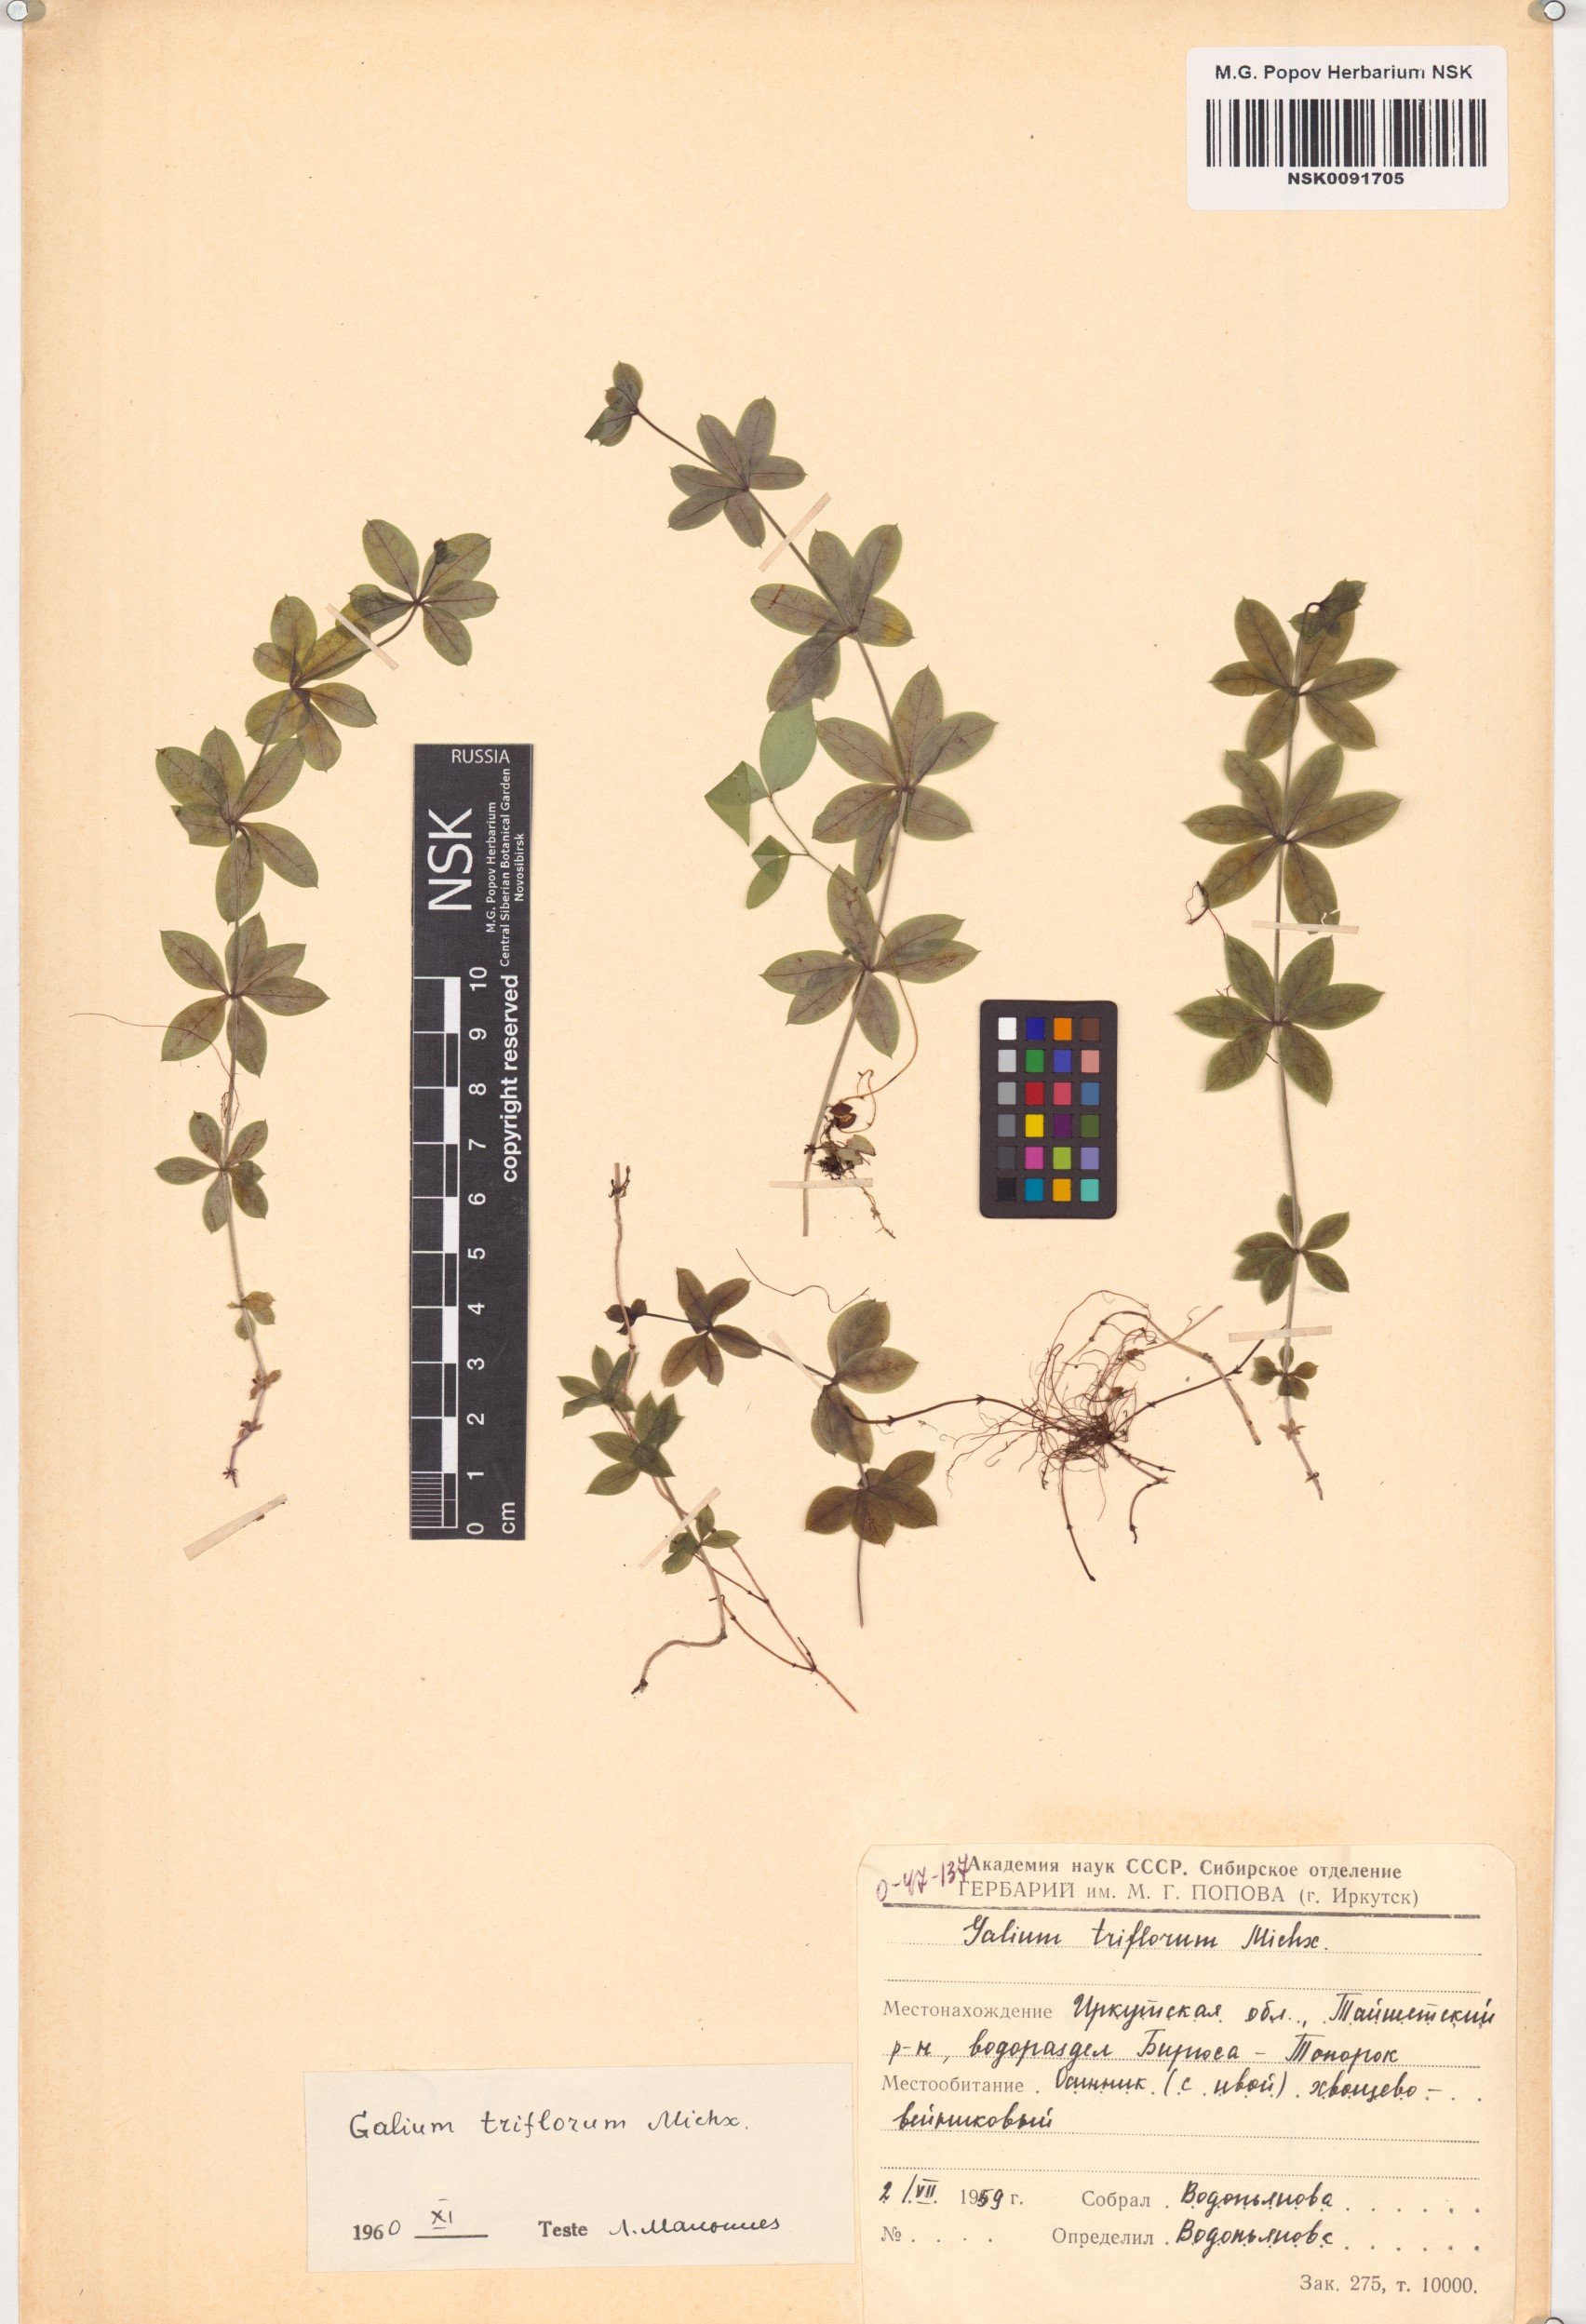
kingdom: Plantae
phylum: Tracheophyta
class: Magnoliopsida
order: Gentianales
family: Rubiaceae
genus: Galium
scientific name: Galium triflorum
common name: Fragrant bedstraw
